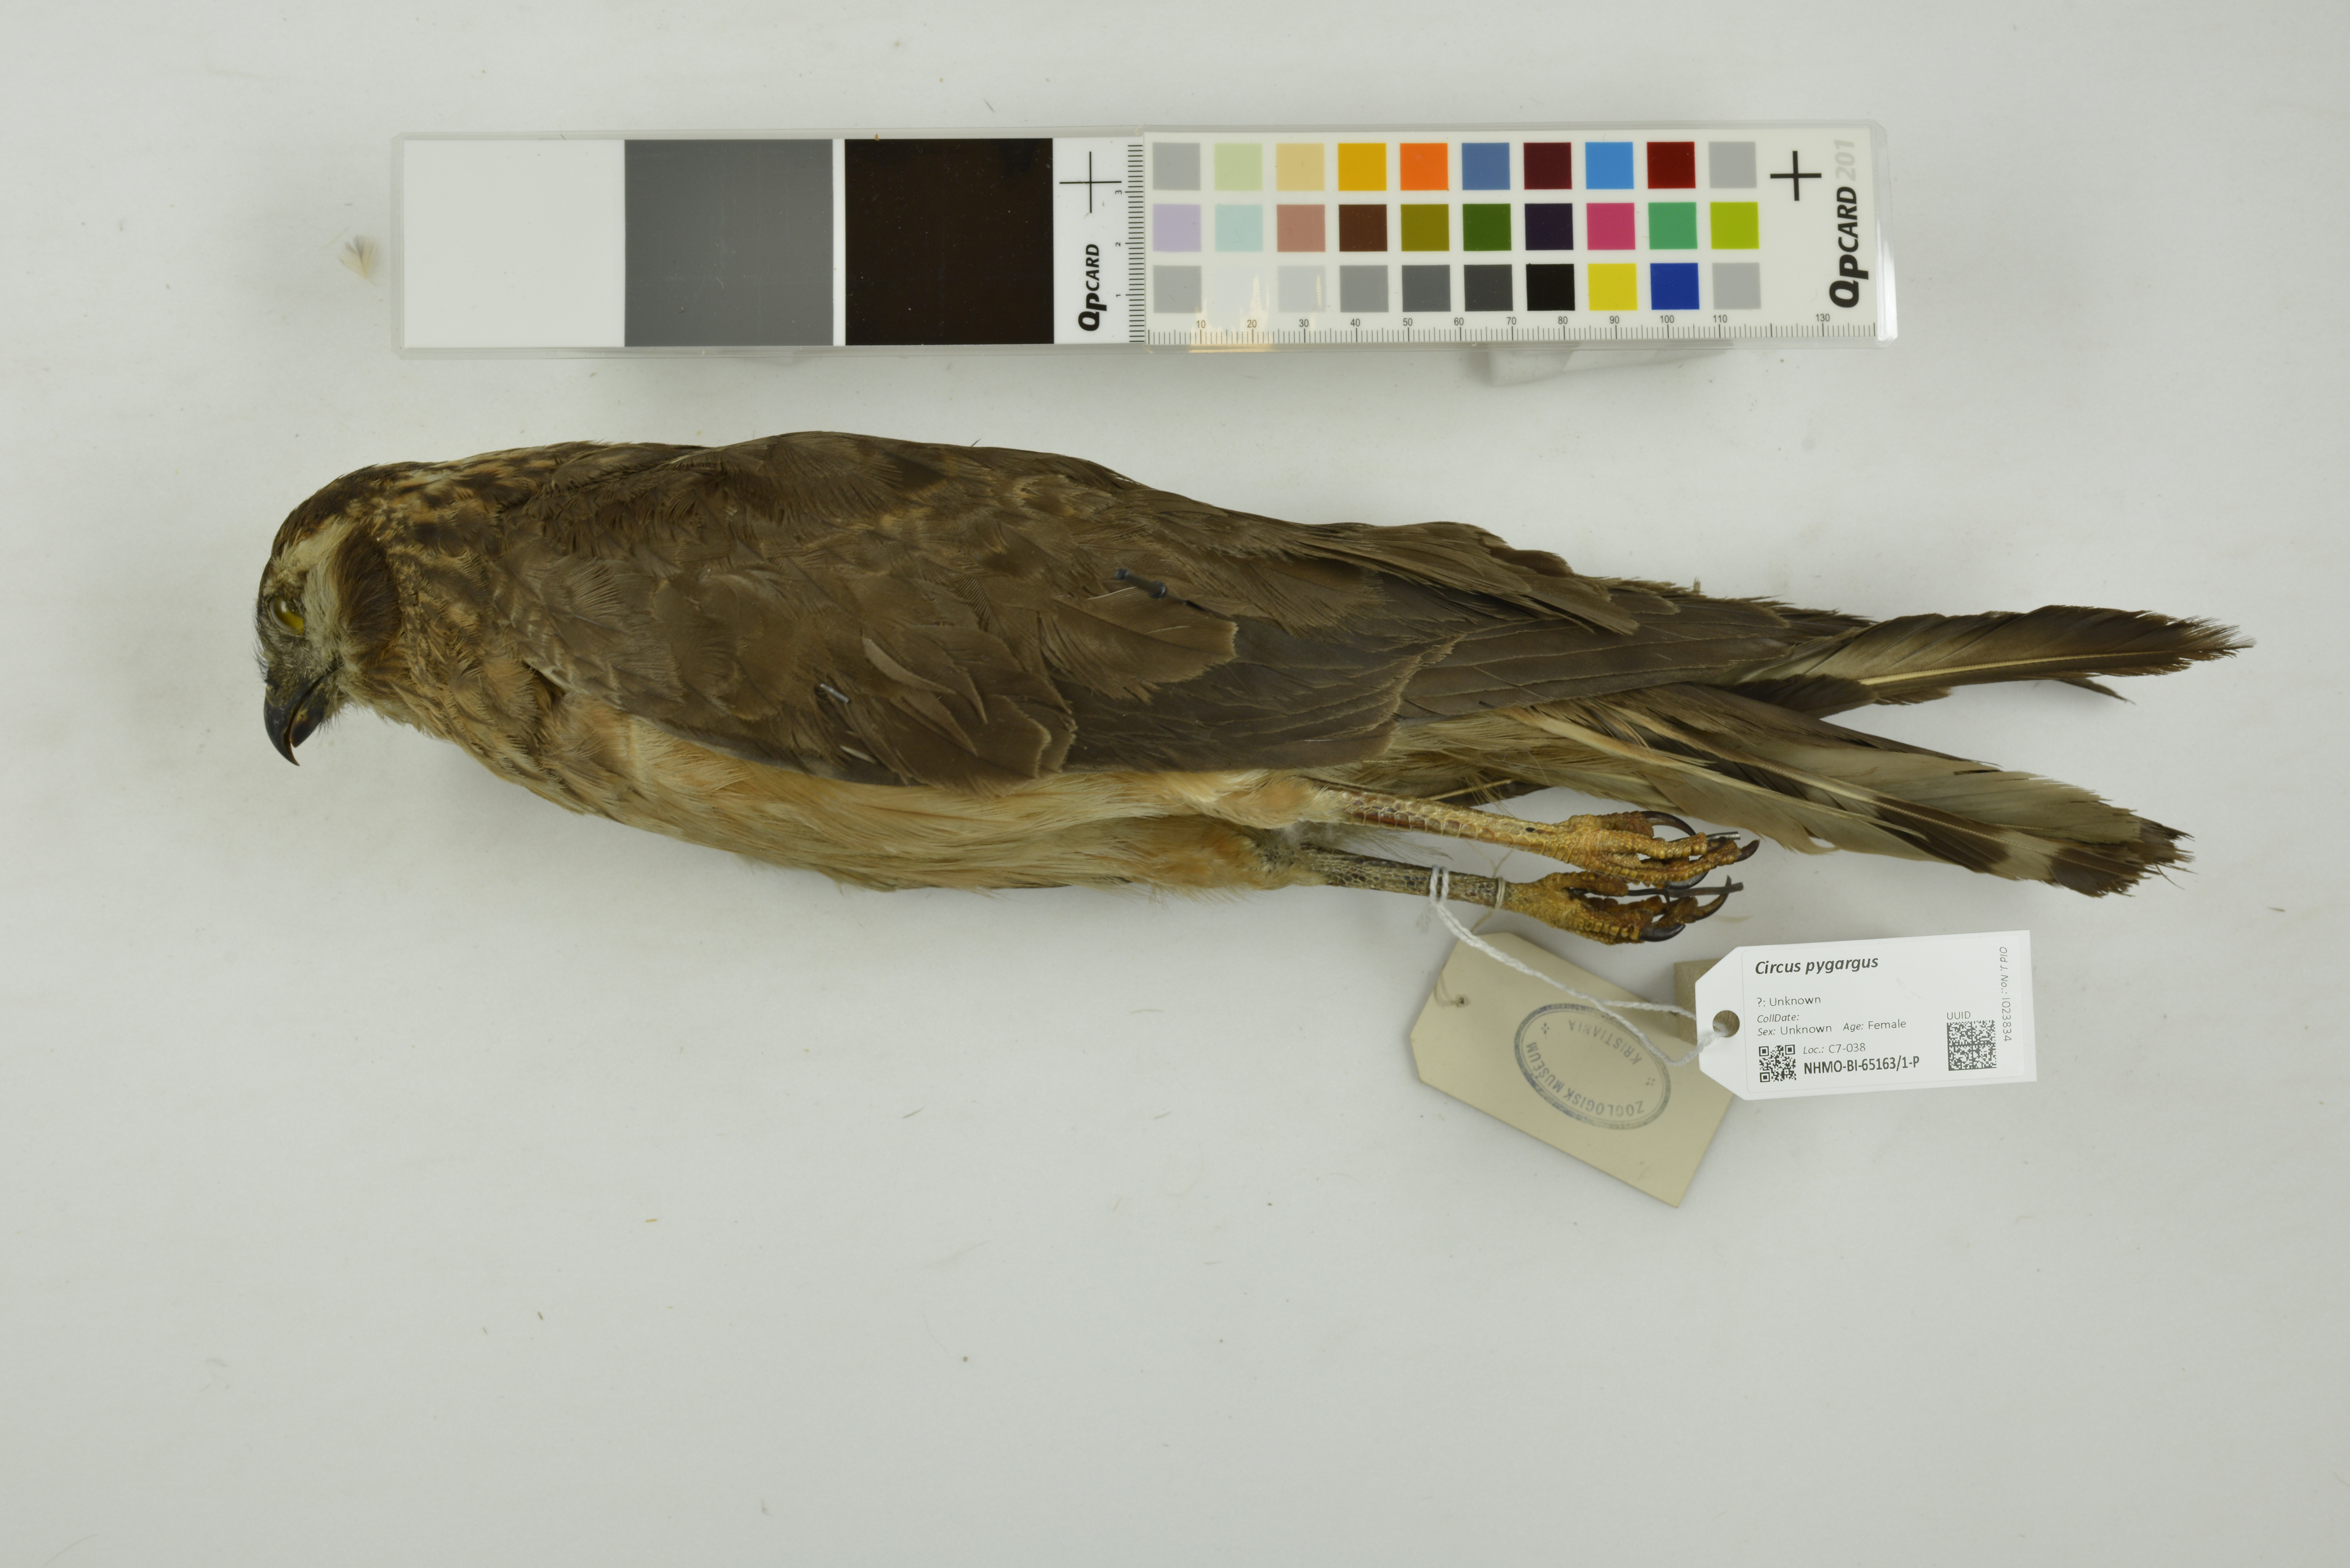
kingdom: Animalia
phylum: Chordata
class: Aves
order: Accipitriformes
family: Accipitridae
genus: Circus
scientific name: Circus pygargus
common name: Montagu's harrier
